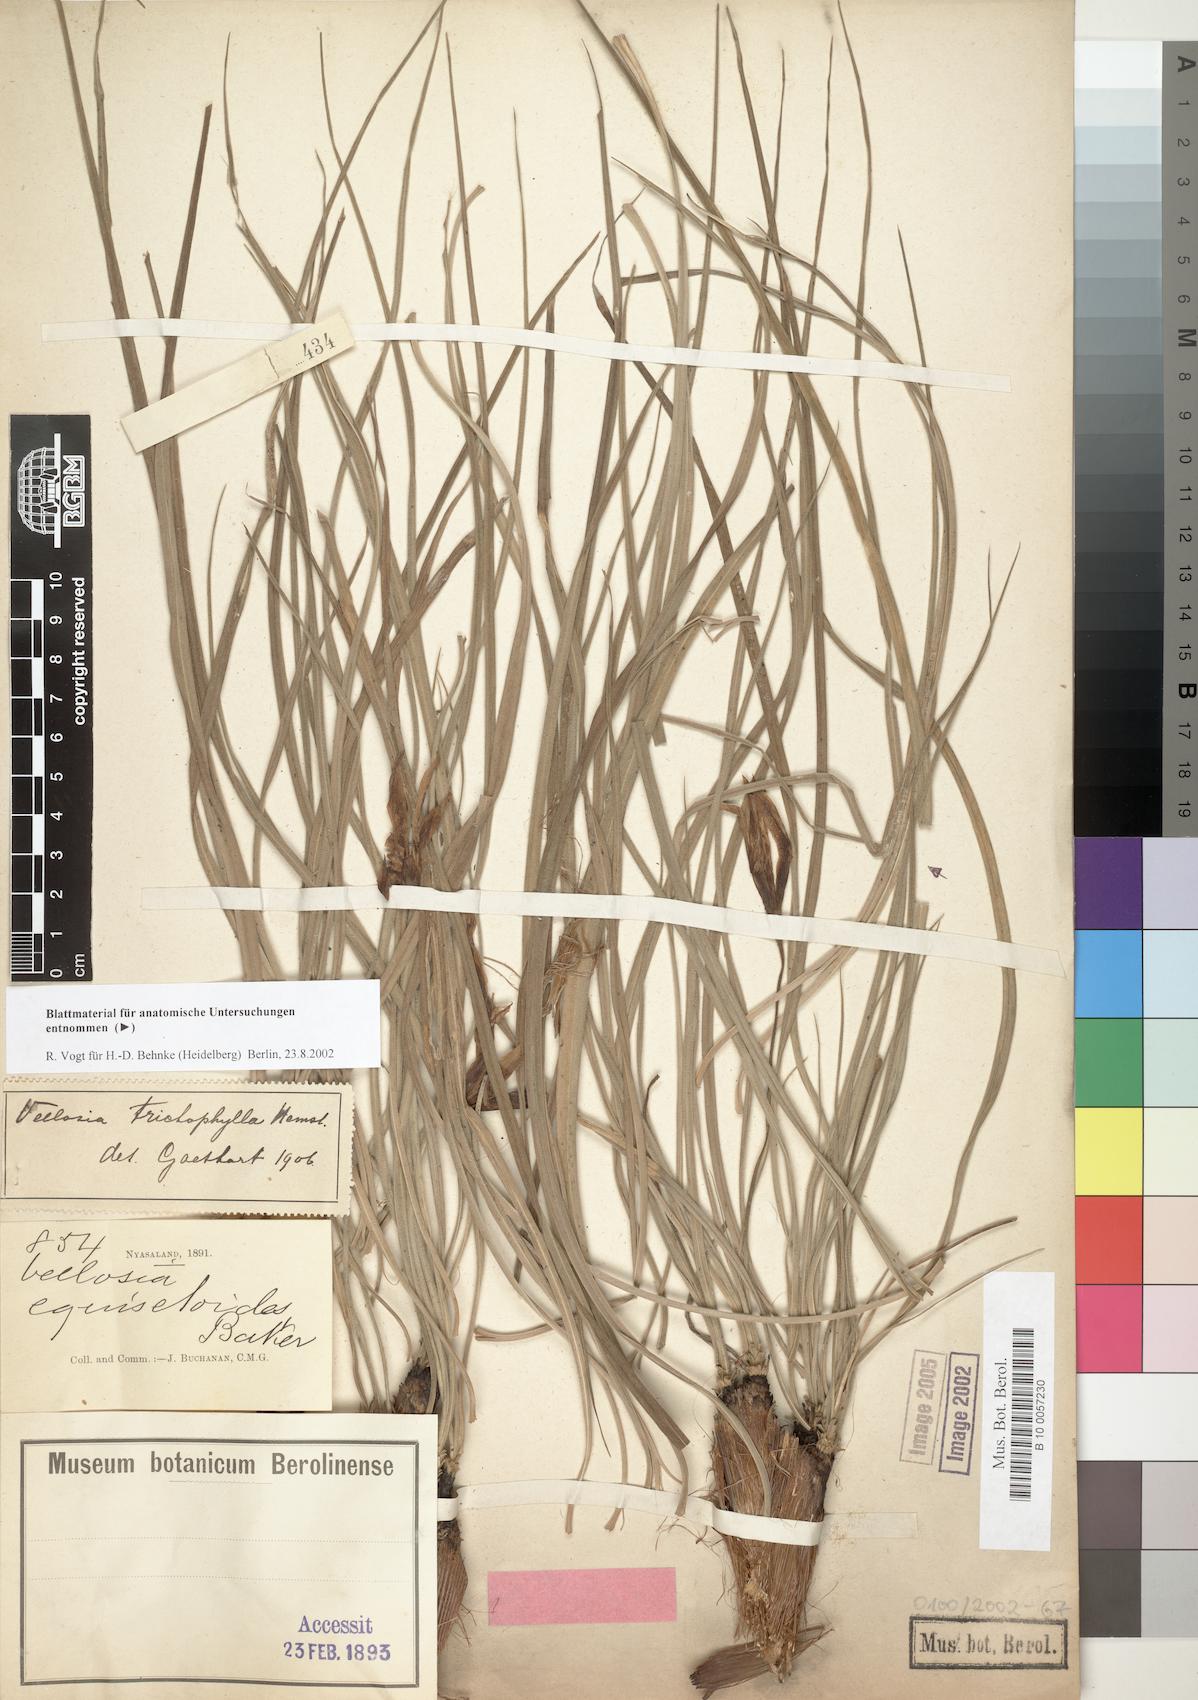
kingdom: Plantae
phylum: Tracheophyta
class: Liliopsida
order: Pandanales
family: Velloziaceae
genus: Xerophyta
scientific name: Xerophyta trichophylla
